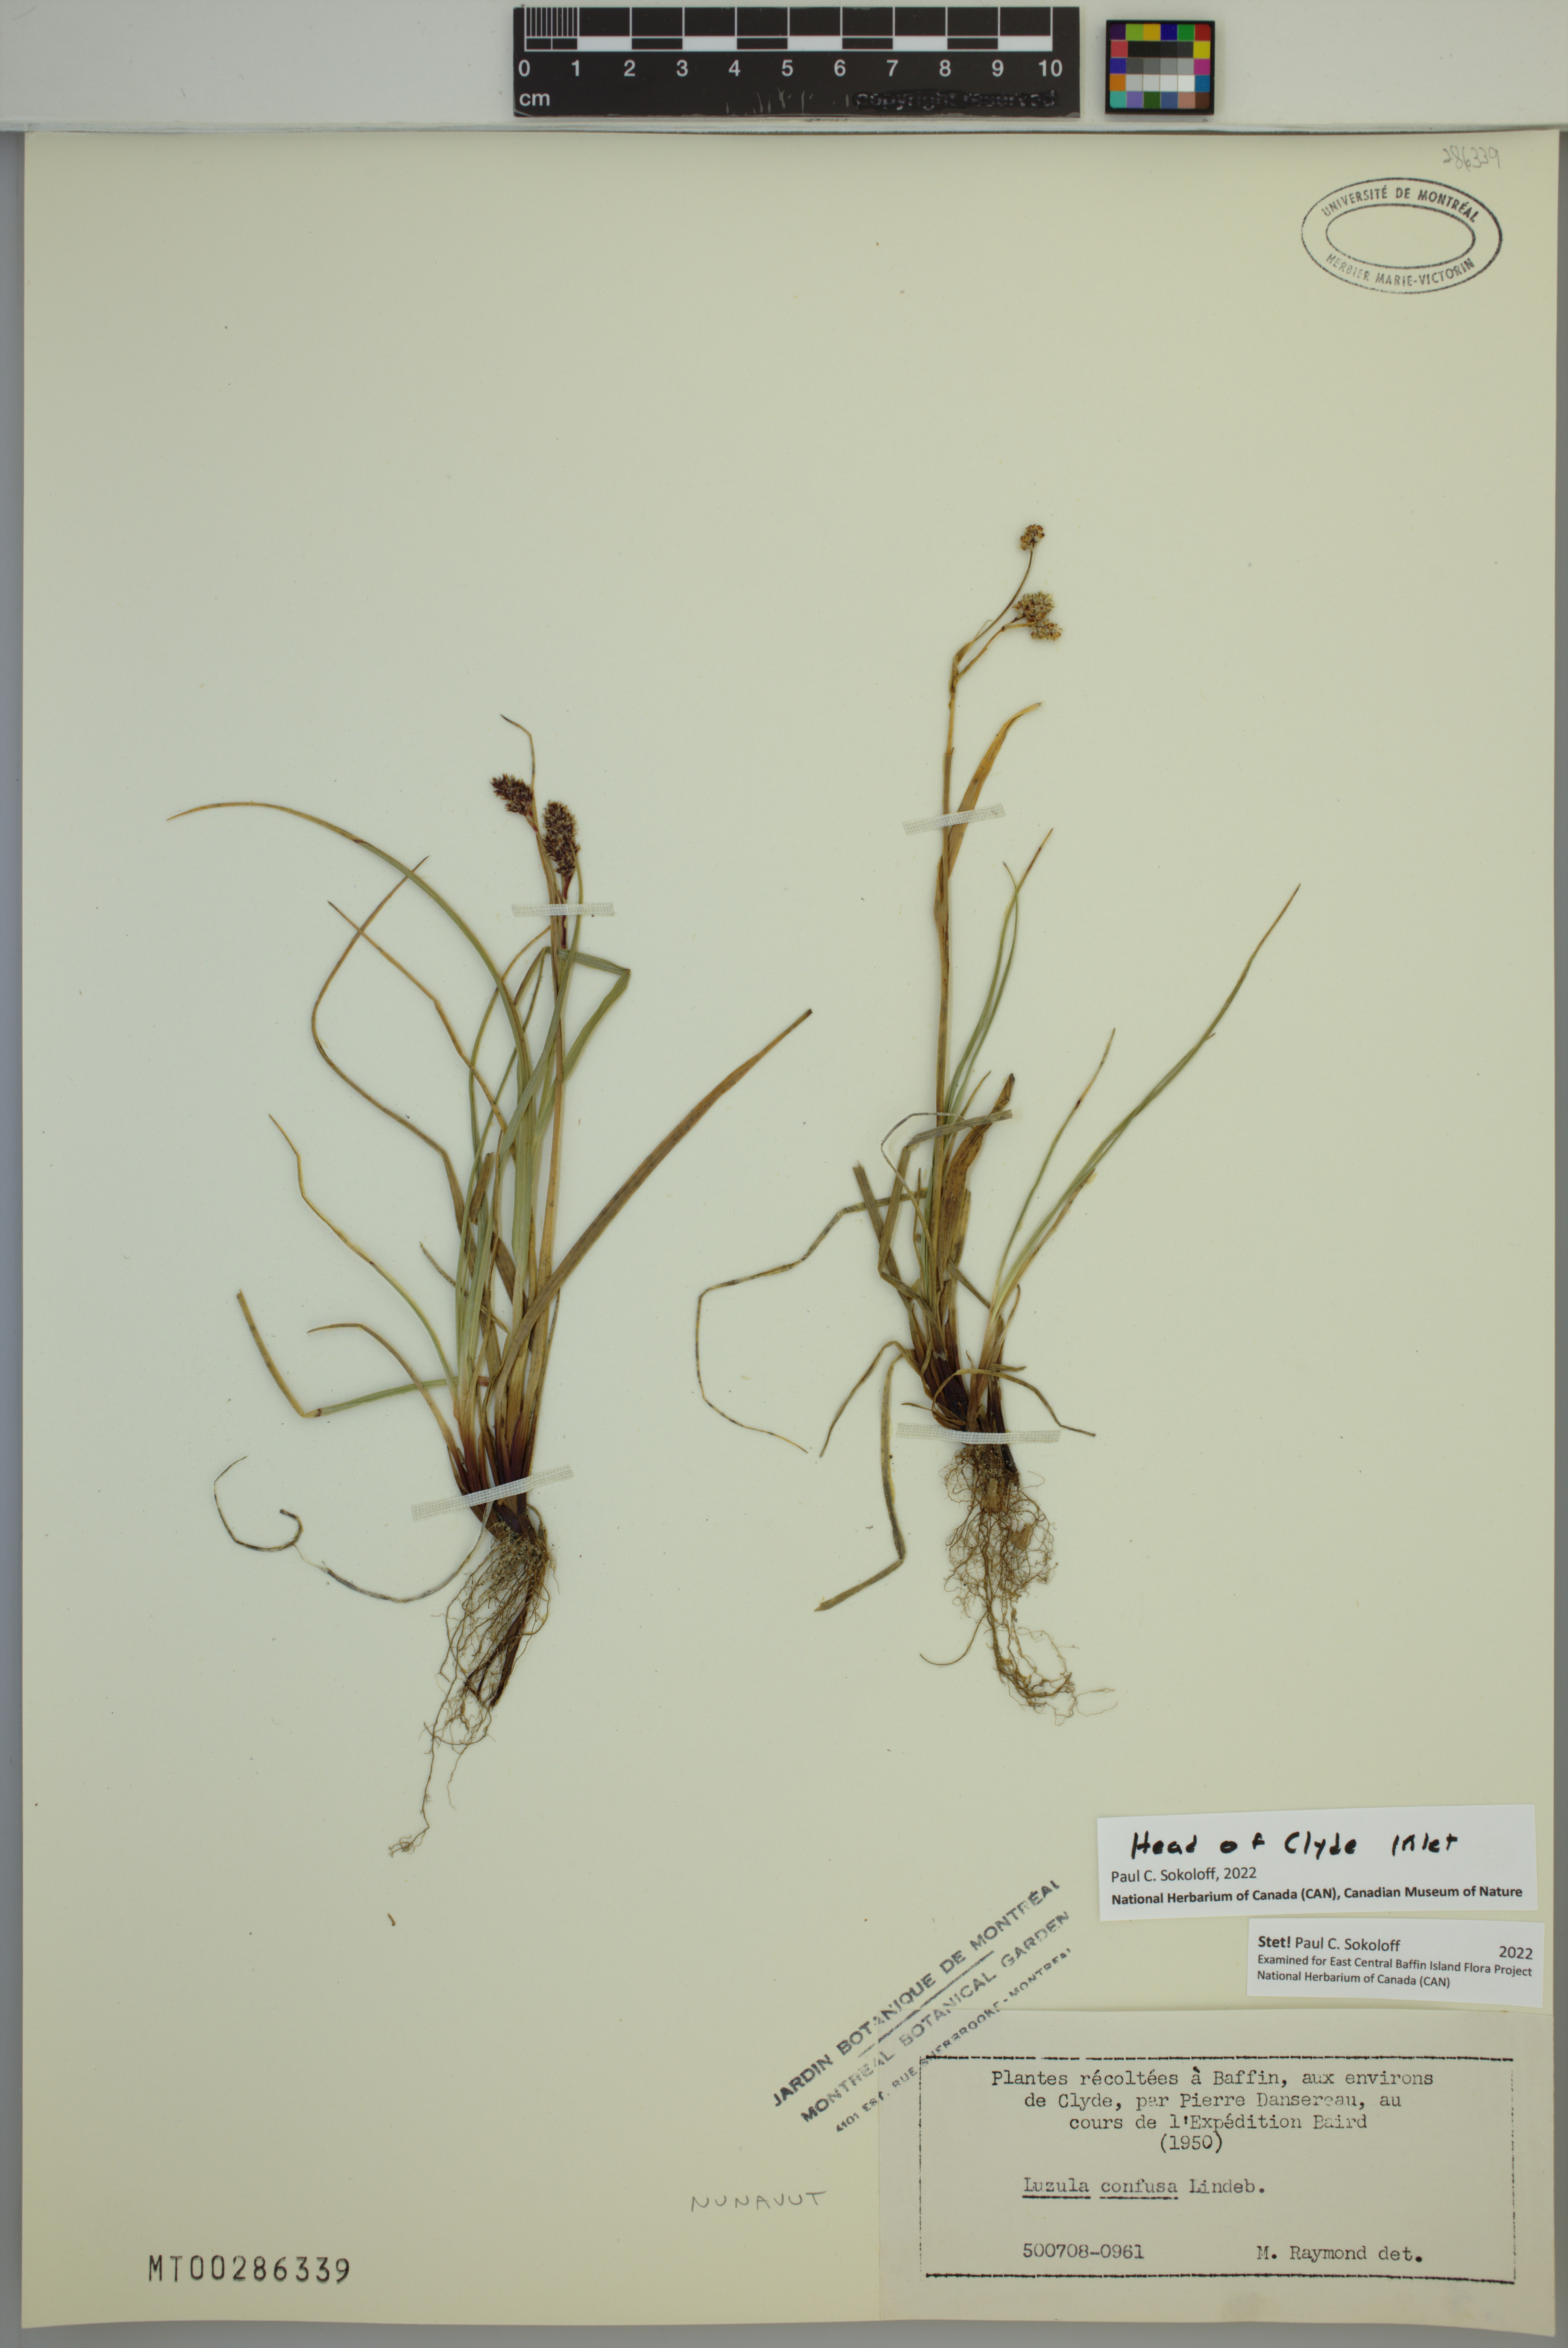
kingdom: Plantae
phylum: Tracheophyta
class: Liliopsida
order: Poales
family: Juncaceae
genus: Luzula
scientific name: Luzula confusa
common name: Northern wood rush
